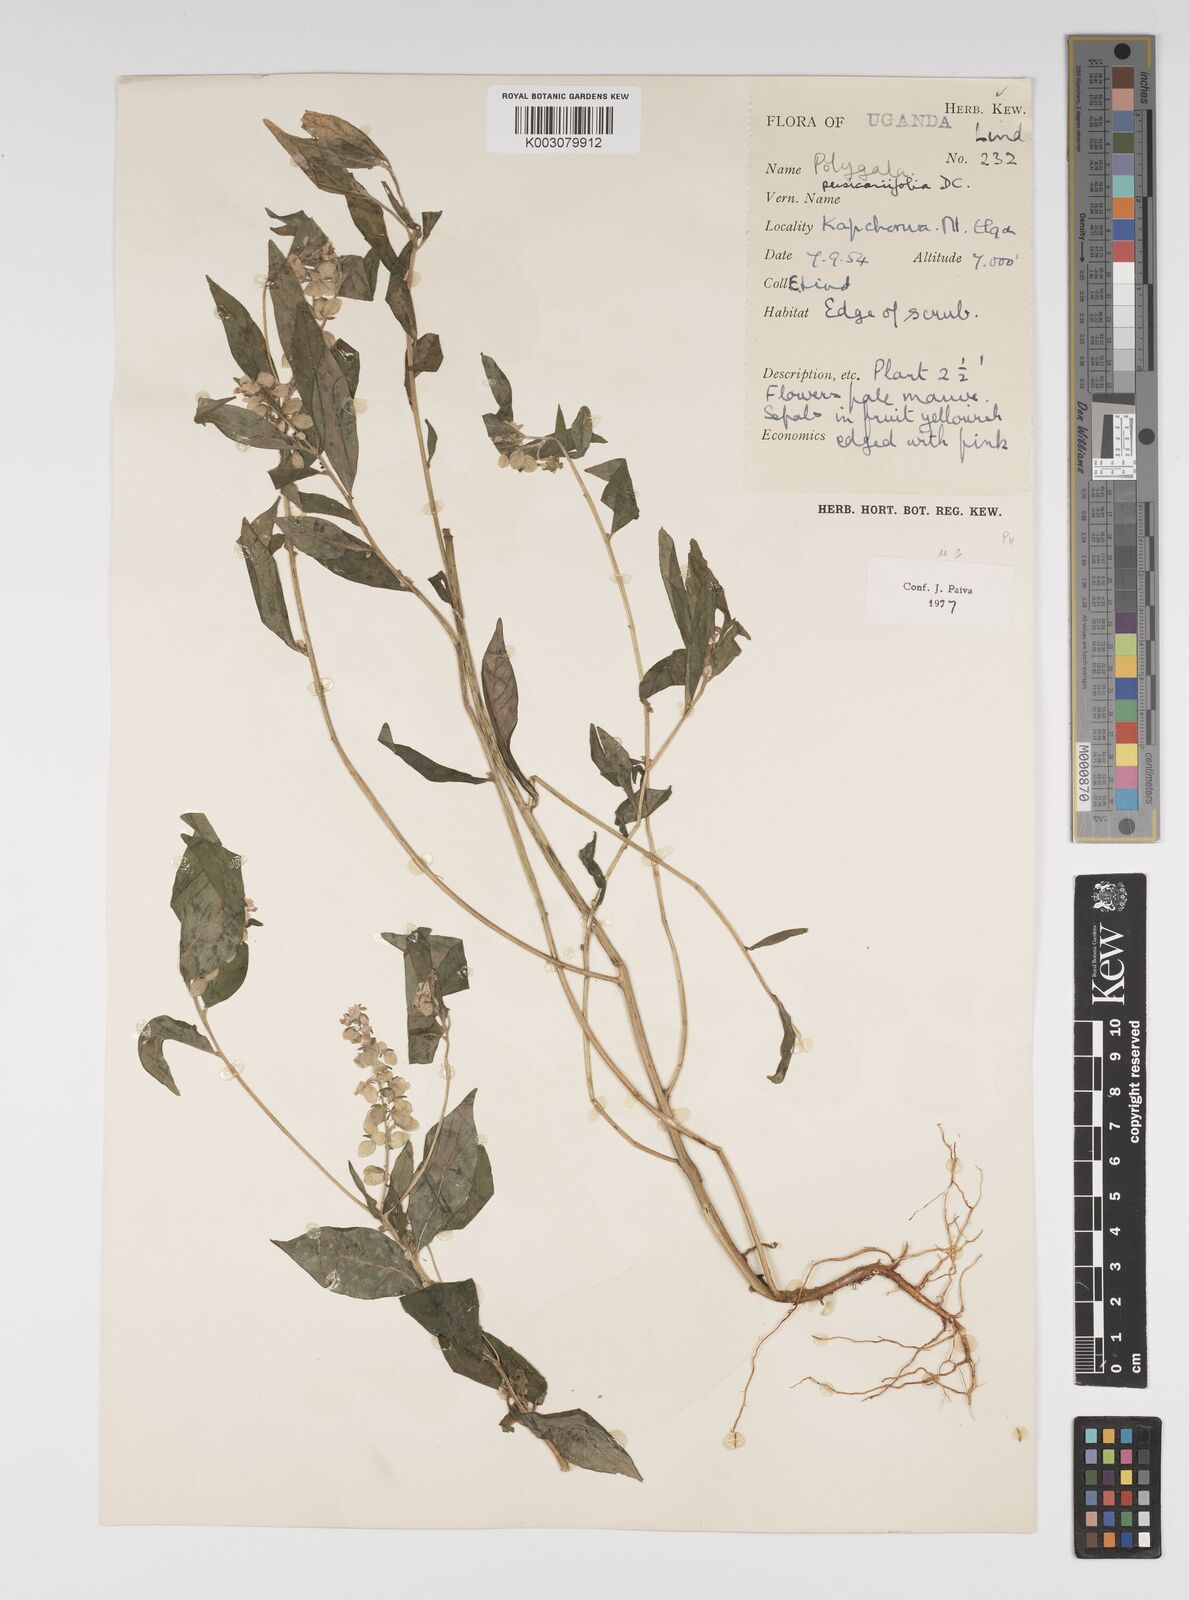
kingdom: Plantae
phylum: Tracheophyta
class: Magnoliopsida
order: Fabales
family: Polygalaceae
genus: Polygala
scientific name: Polygala persicariifolia
